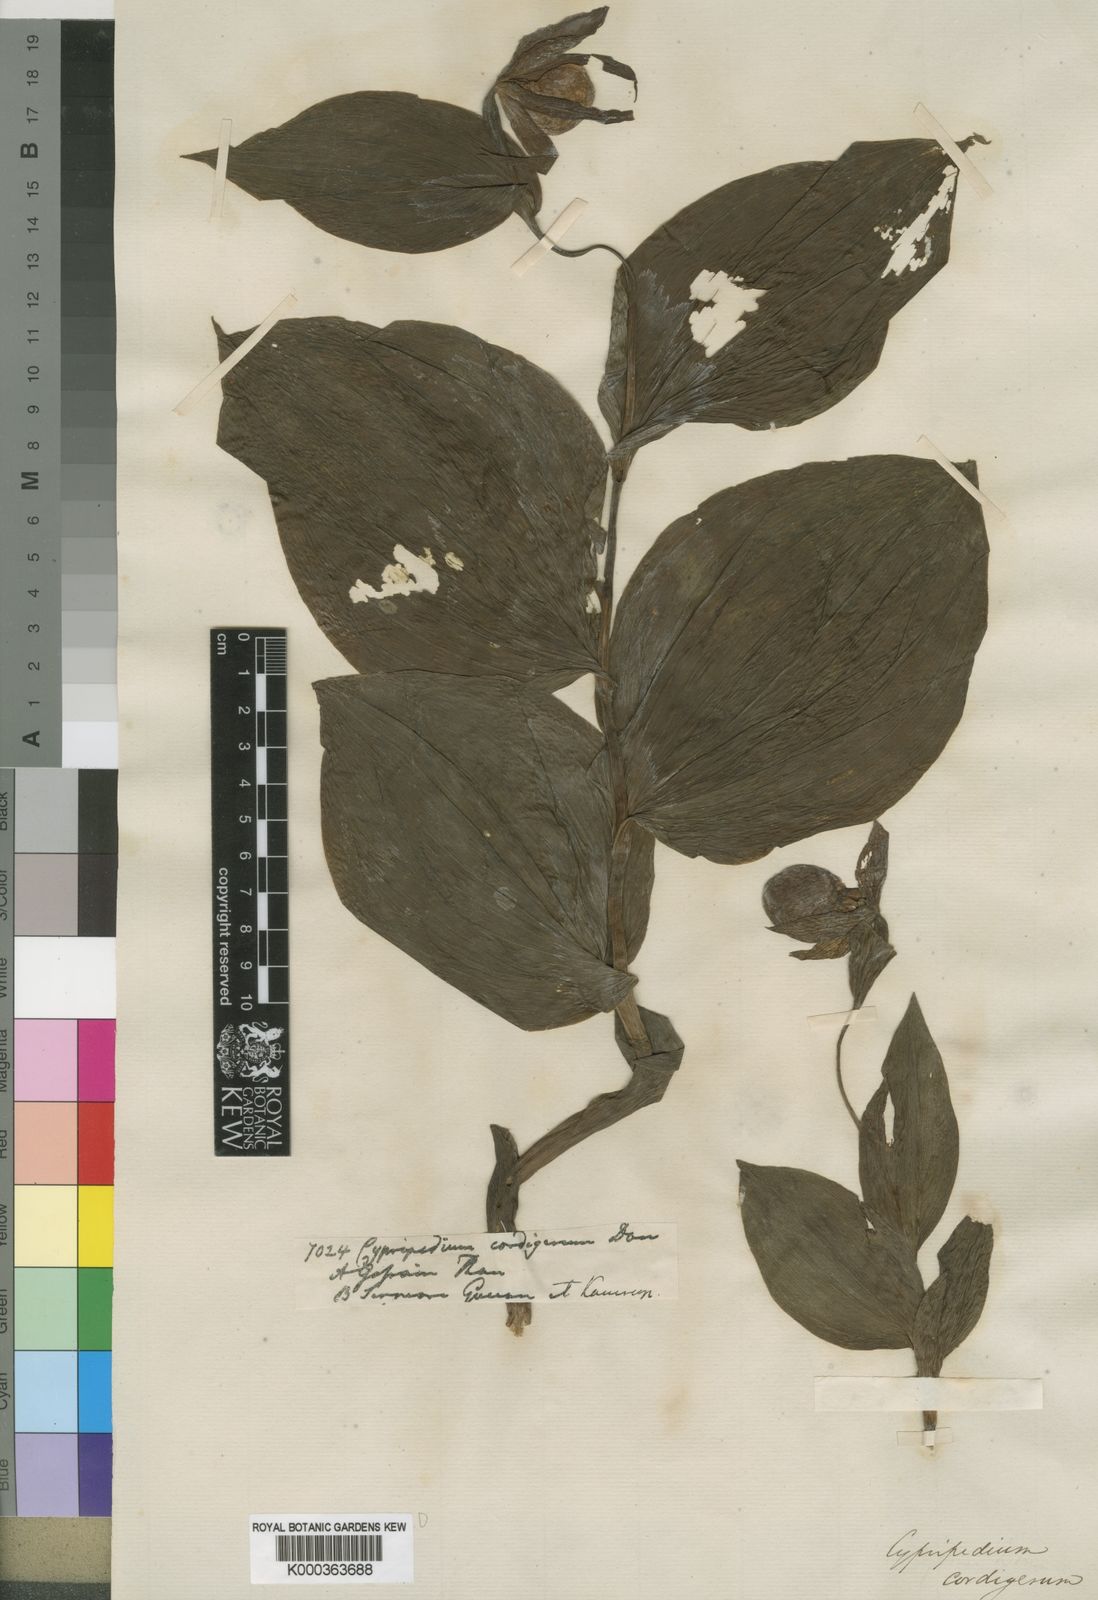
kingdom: Plantae
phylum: Tracheophyta
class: Liliopsida
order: Asparagales
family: Orchidaceae
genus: Cypripedium
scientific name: Cypripedium cordigerum
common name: Heart-shaped lip cypripedium
